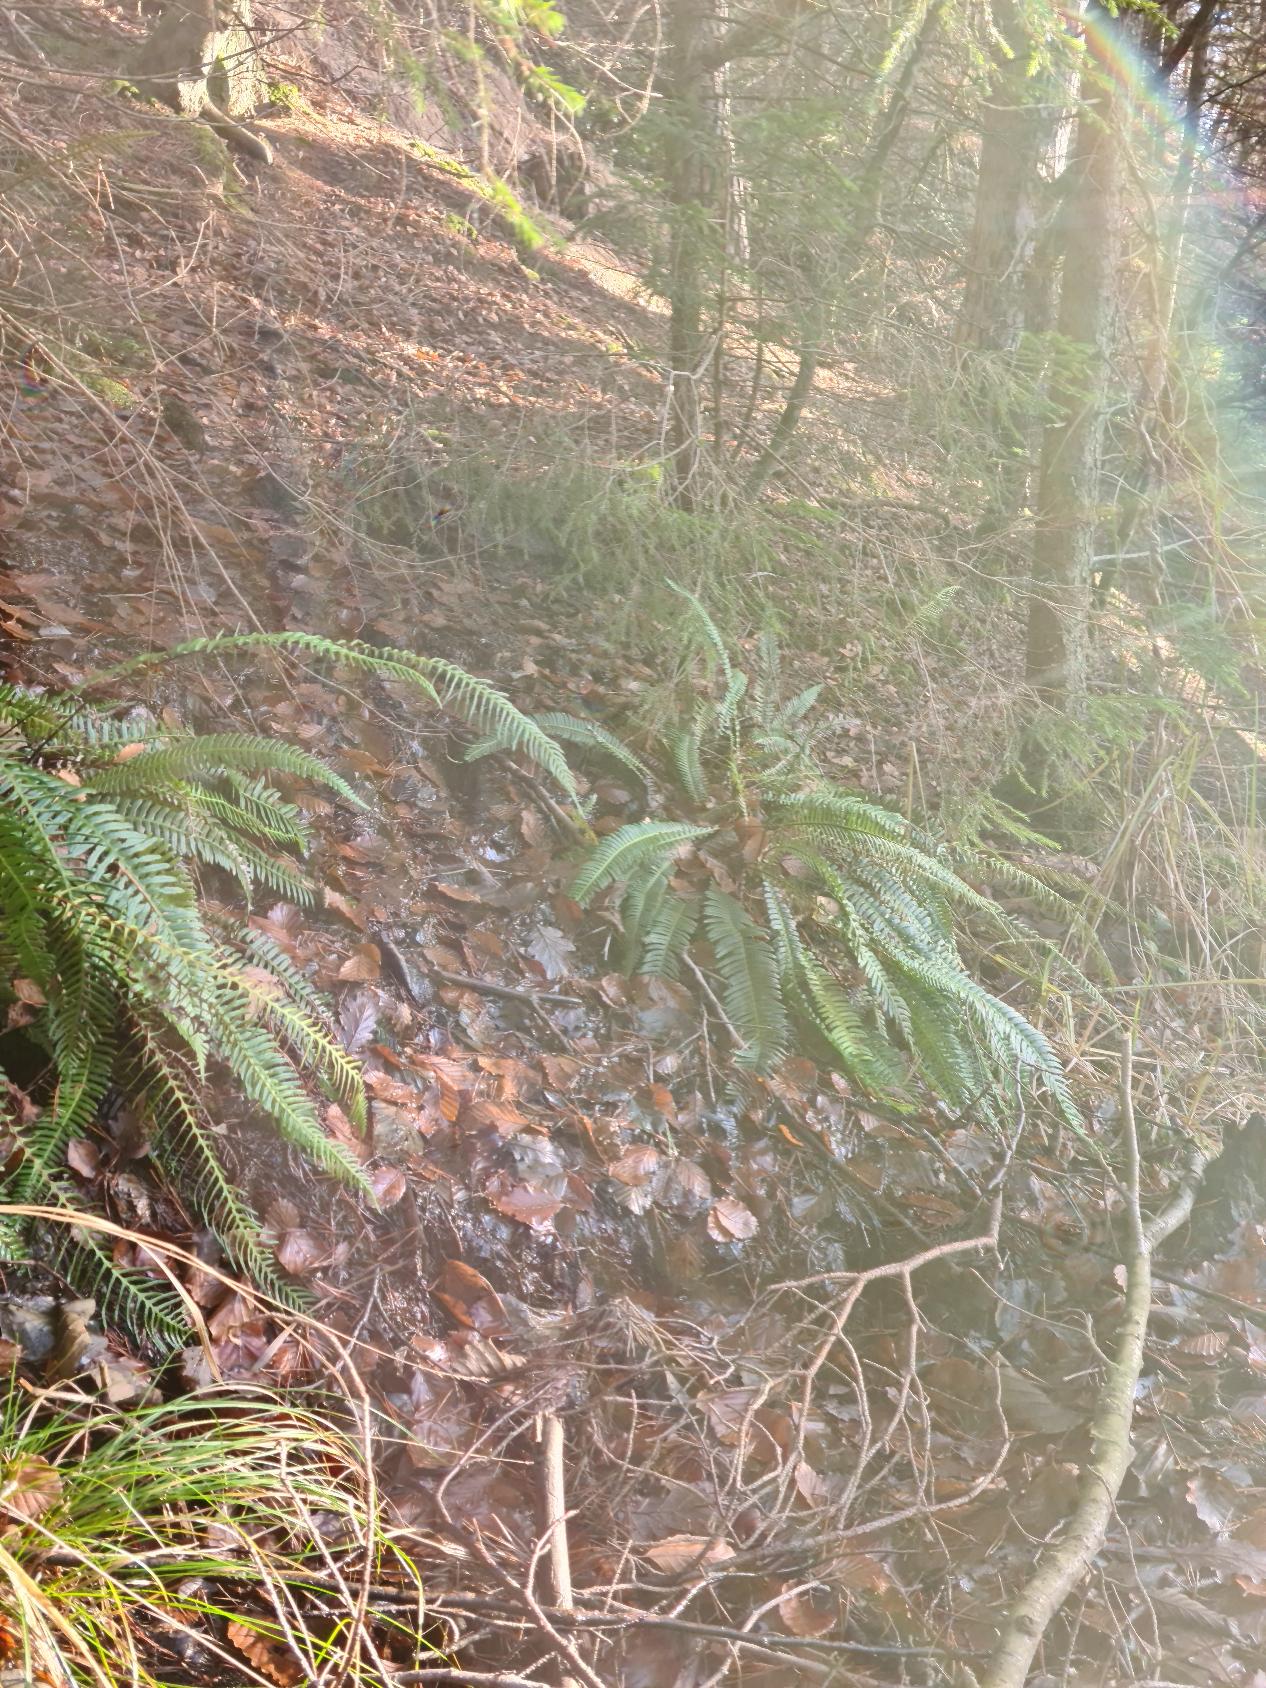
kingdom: Plantae
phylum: Tracheophyta
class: Polypodiopsida
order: Polypodiales
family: Blechnaceae
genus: Struthiopteris
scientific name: Struthiopteris spicant
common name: Kambregne
